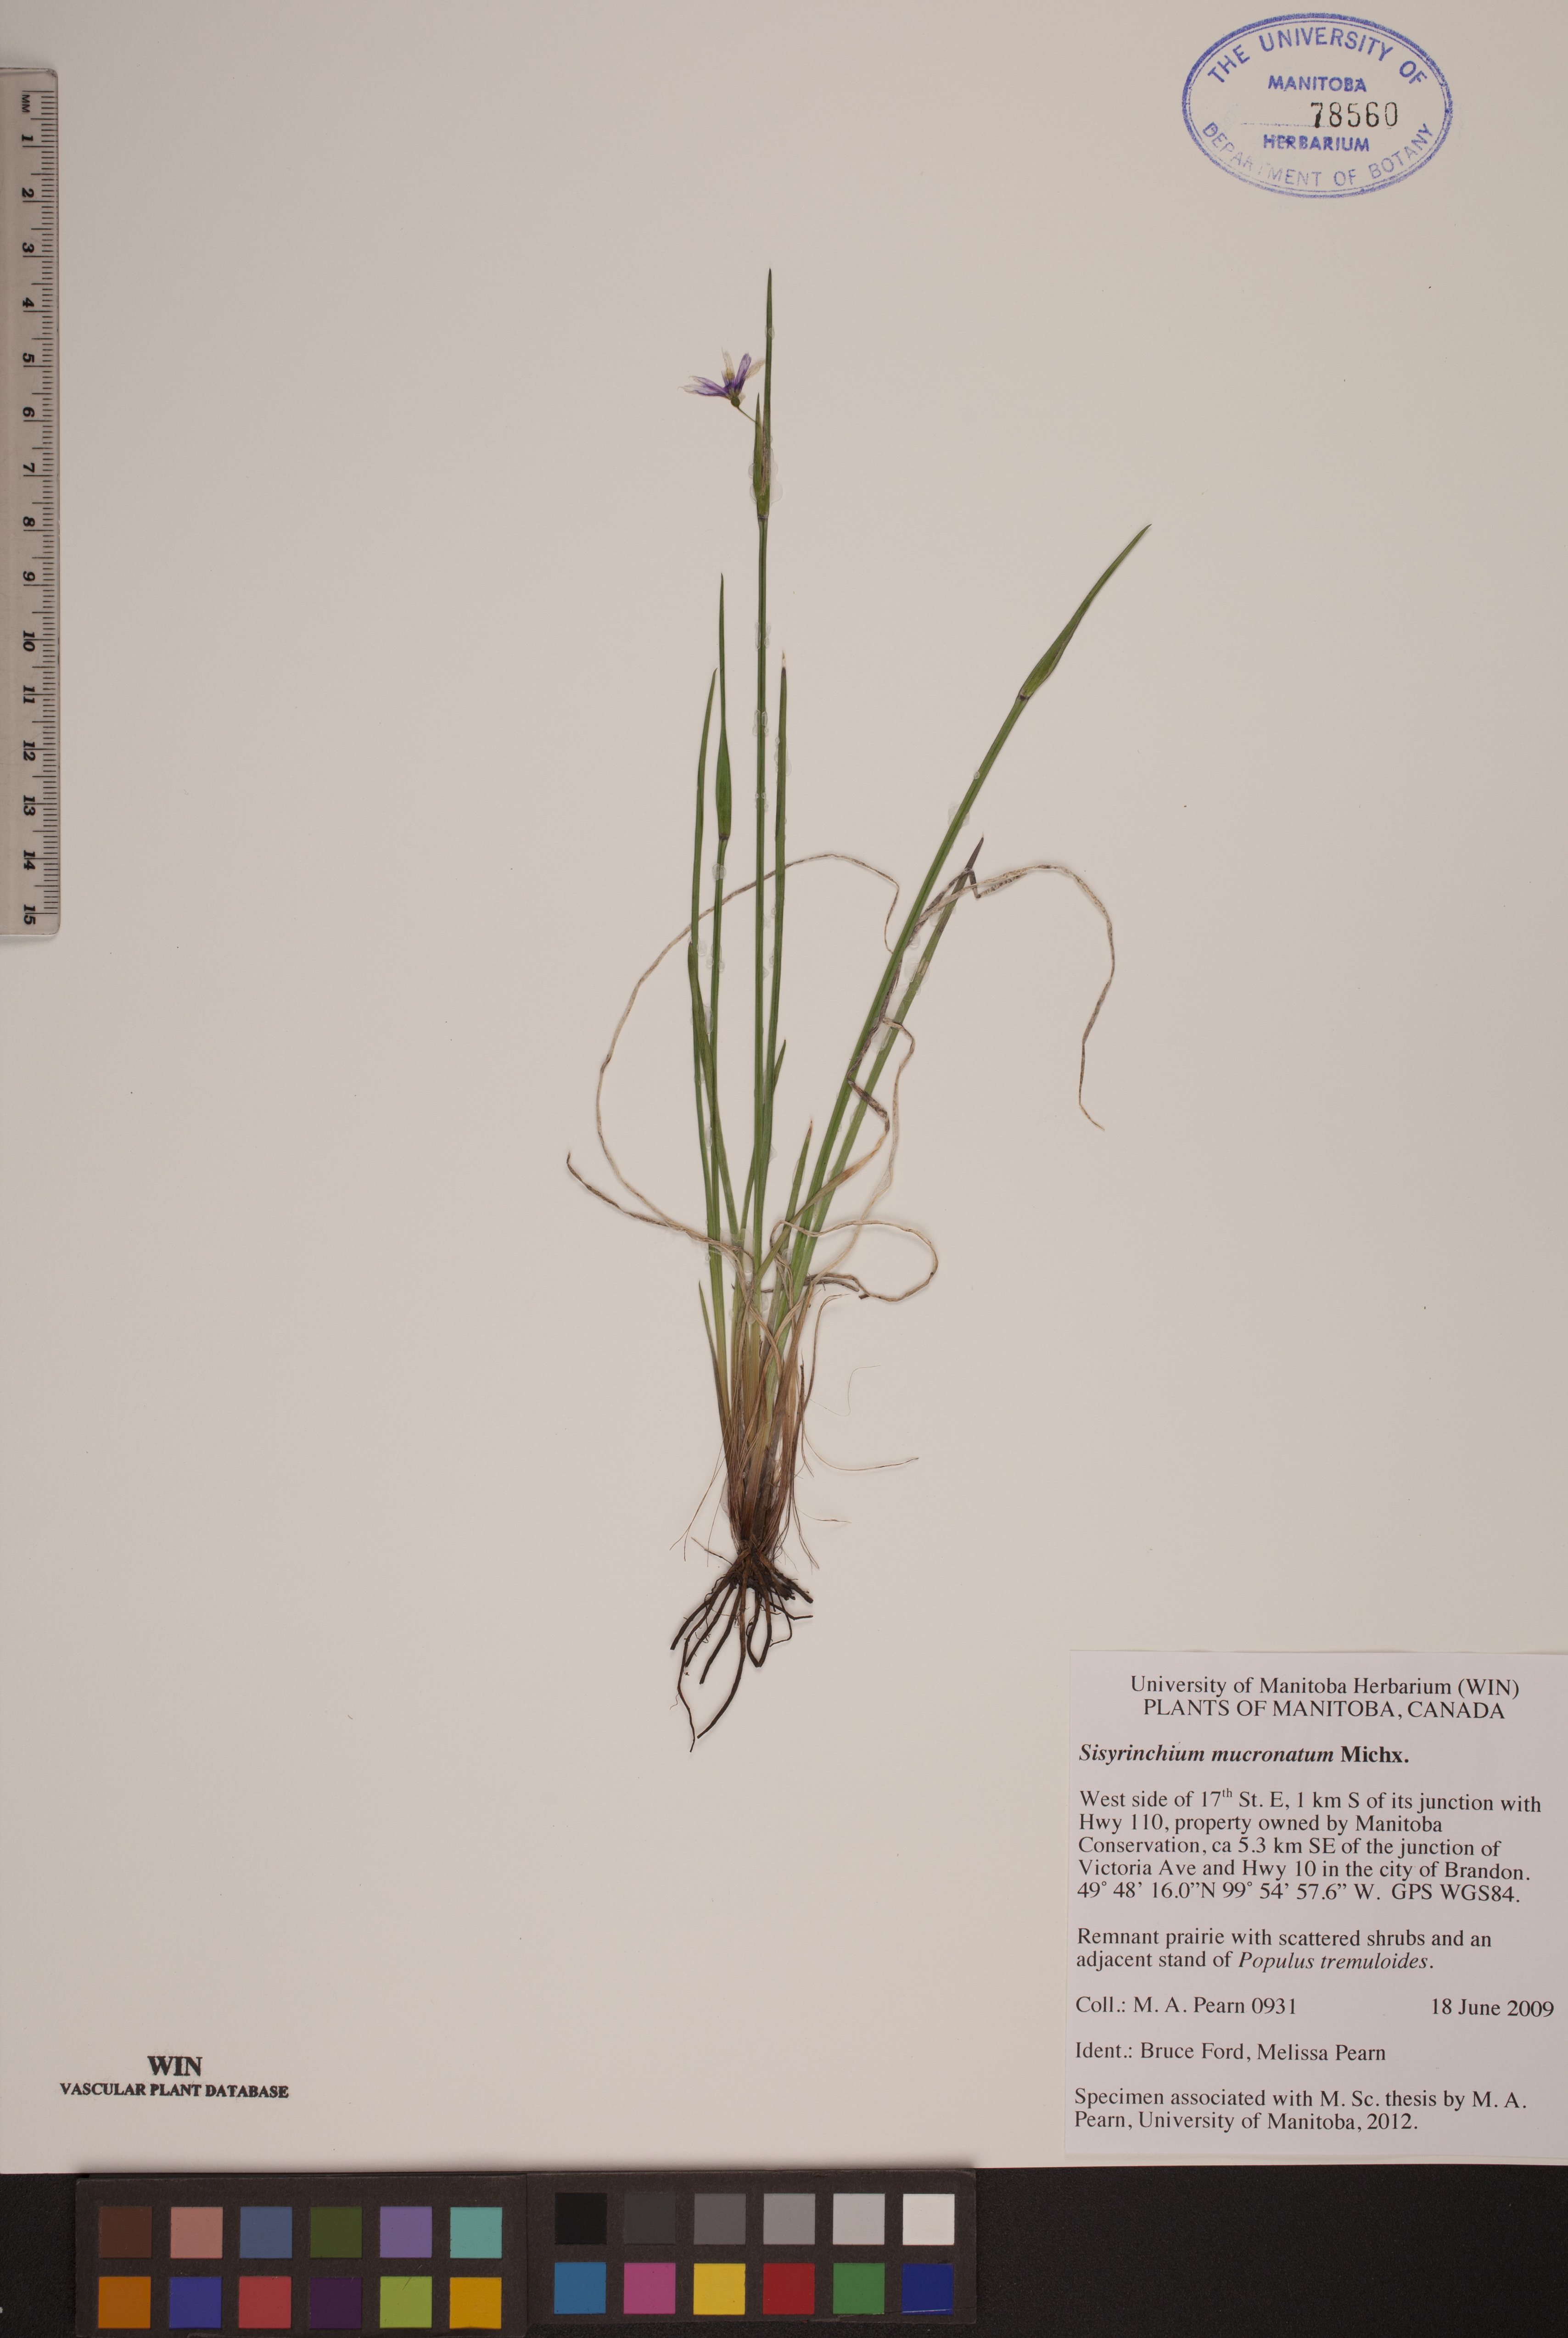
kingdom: Plantae
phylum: Tracheophyta
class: Liliopsida
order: Asparagales
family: Iridaceae
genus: Sisyrinchium
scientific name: Sisyrinchium mucronatum
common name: Eastern blue-eyed-grass
